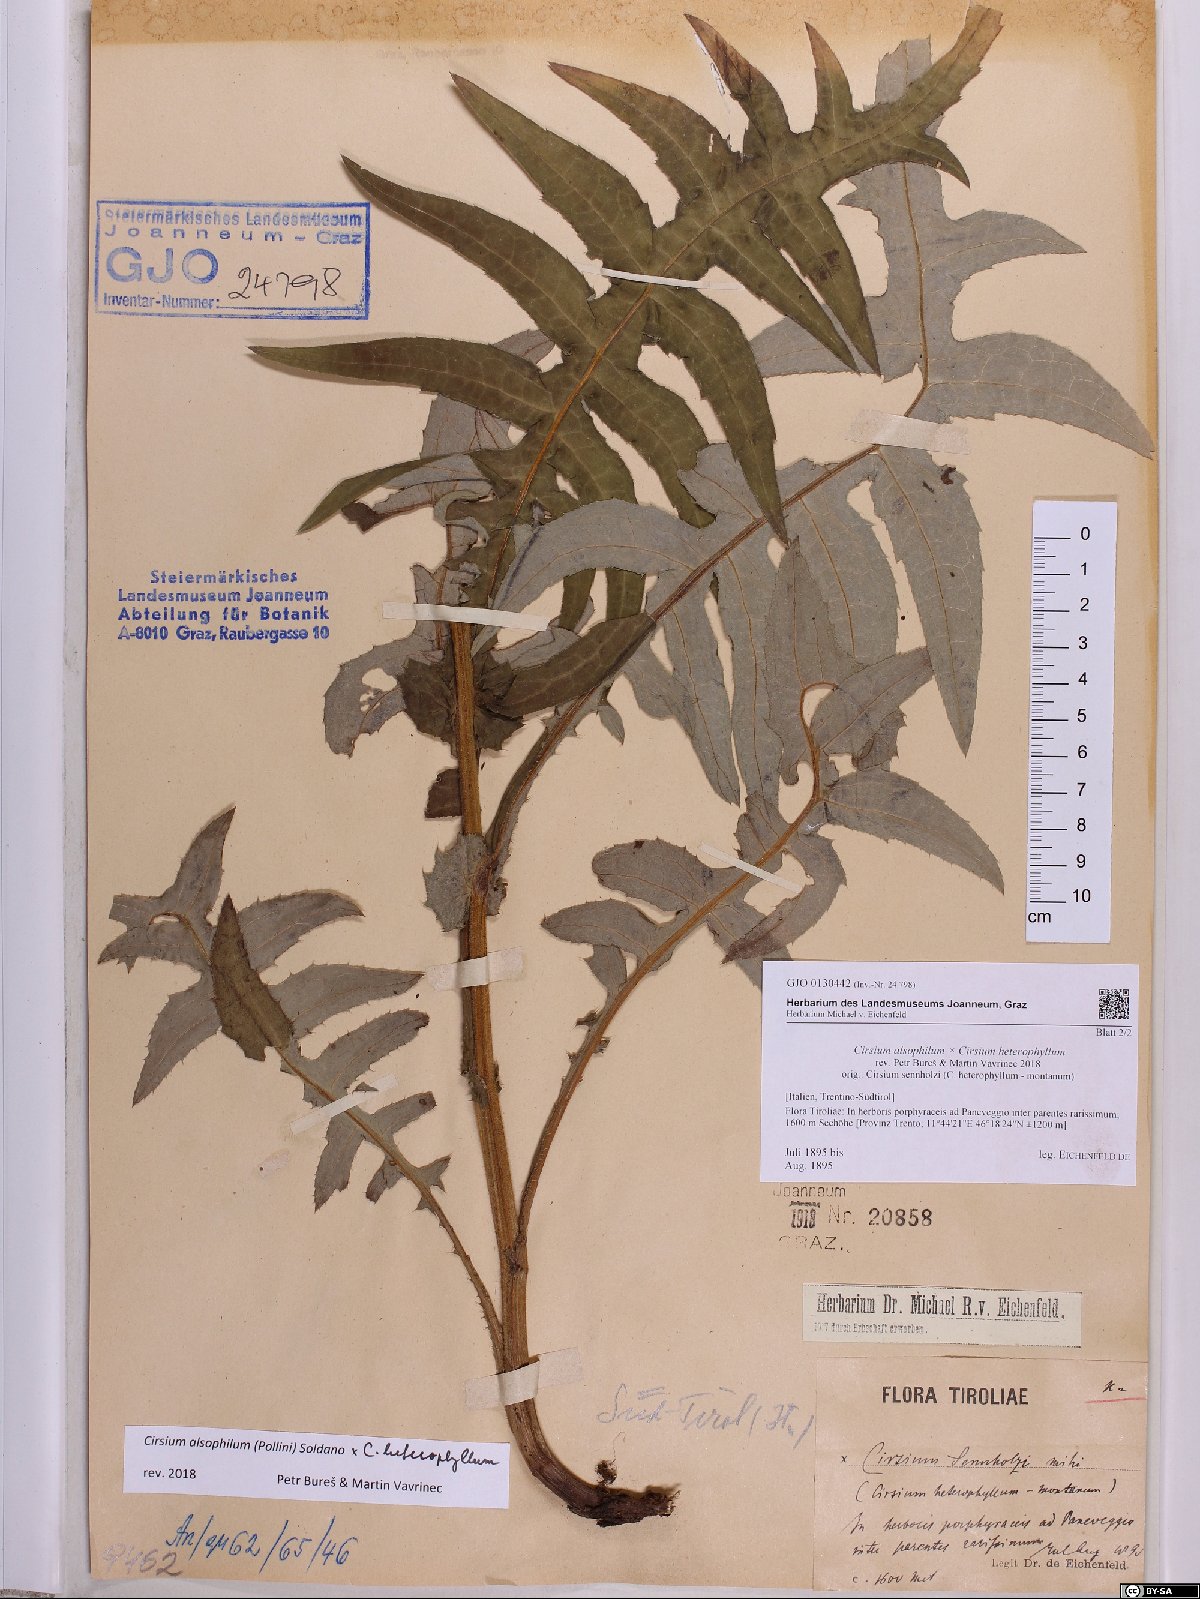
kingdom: Plantae
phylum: Tracheophyta
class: Magnoliopsida
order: Asterales
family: Asteraceae
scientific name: Asteraceae
